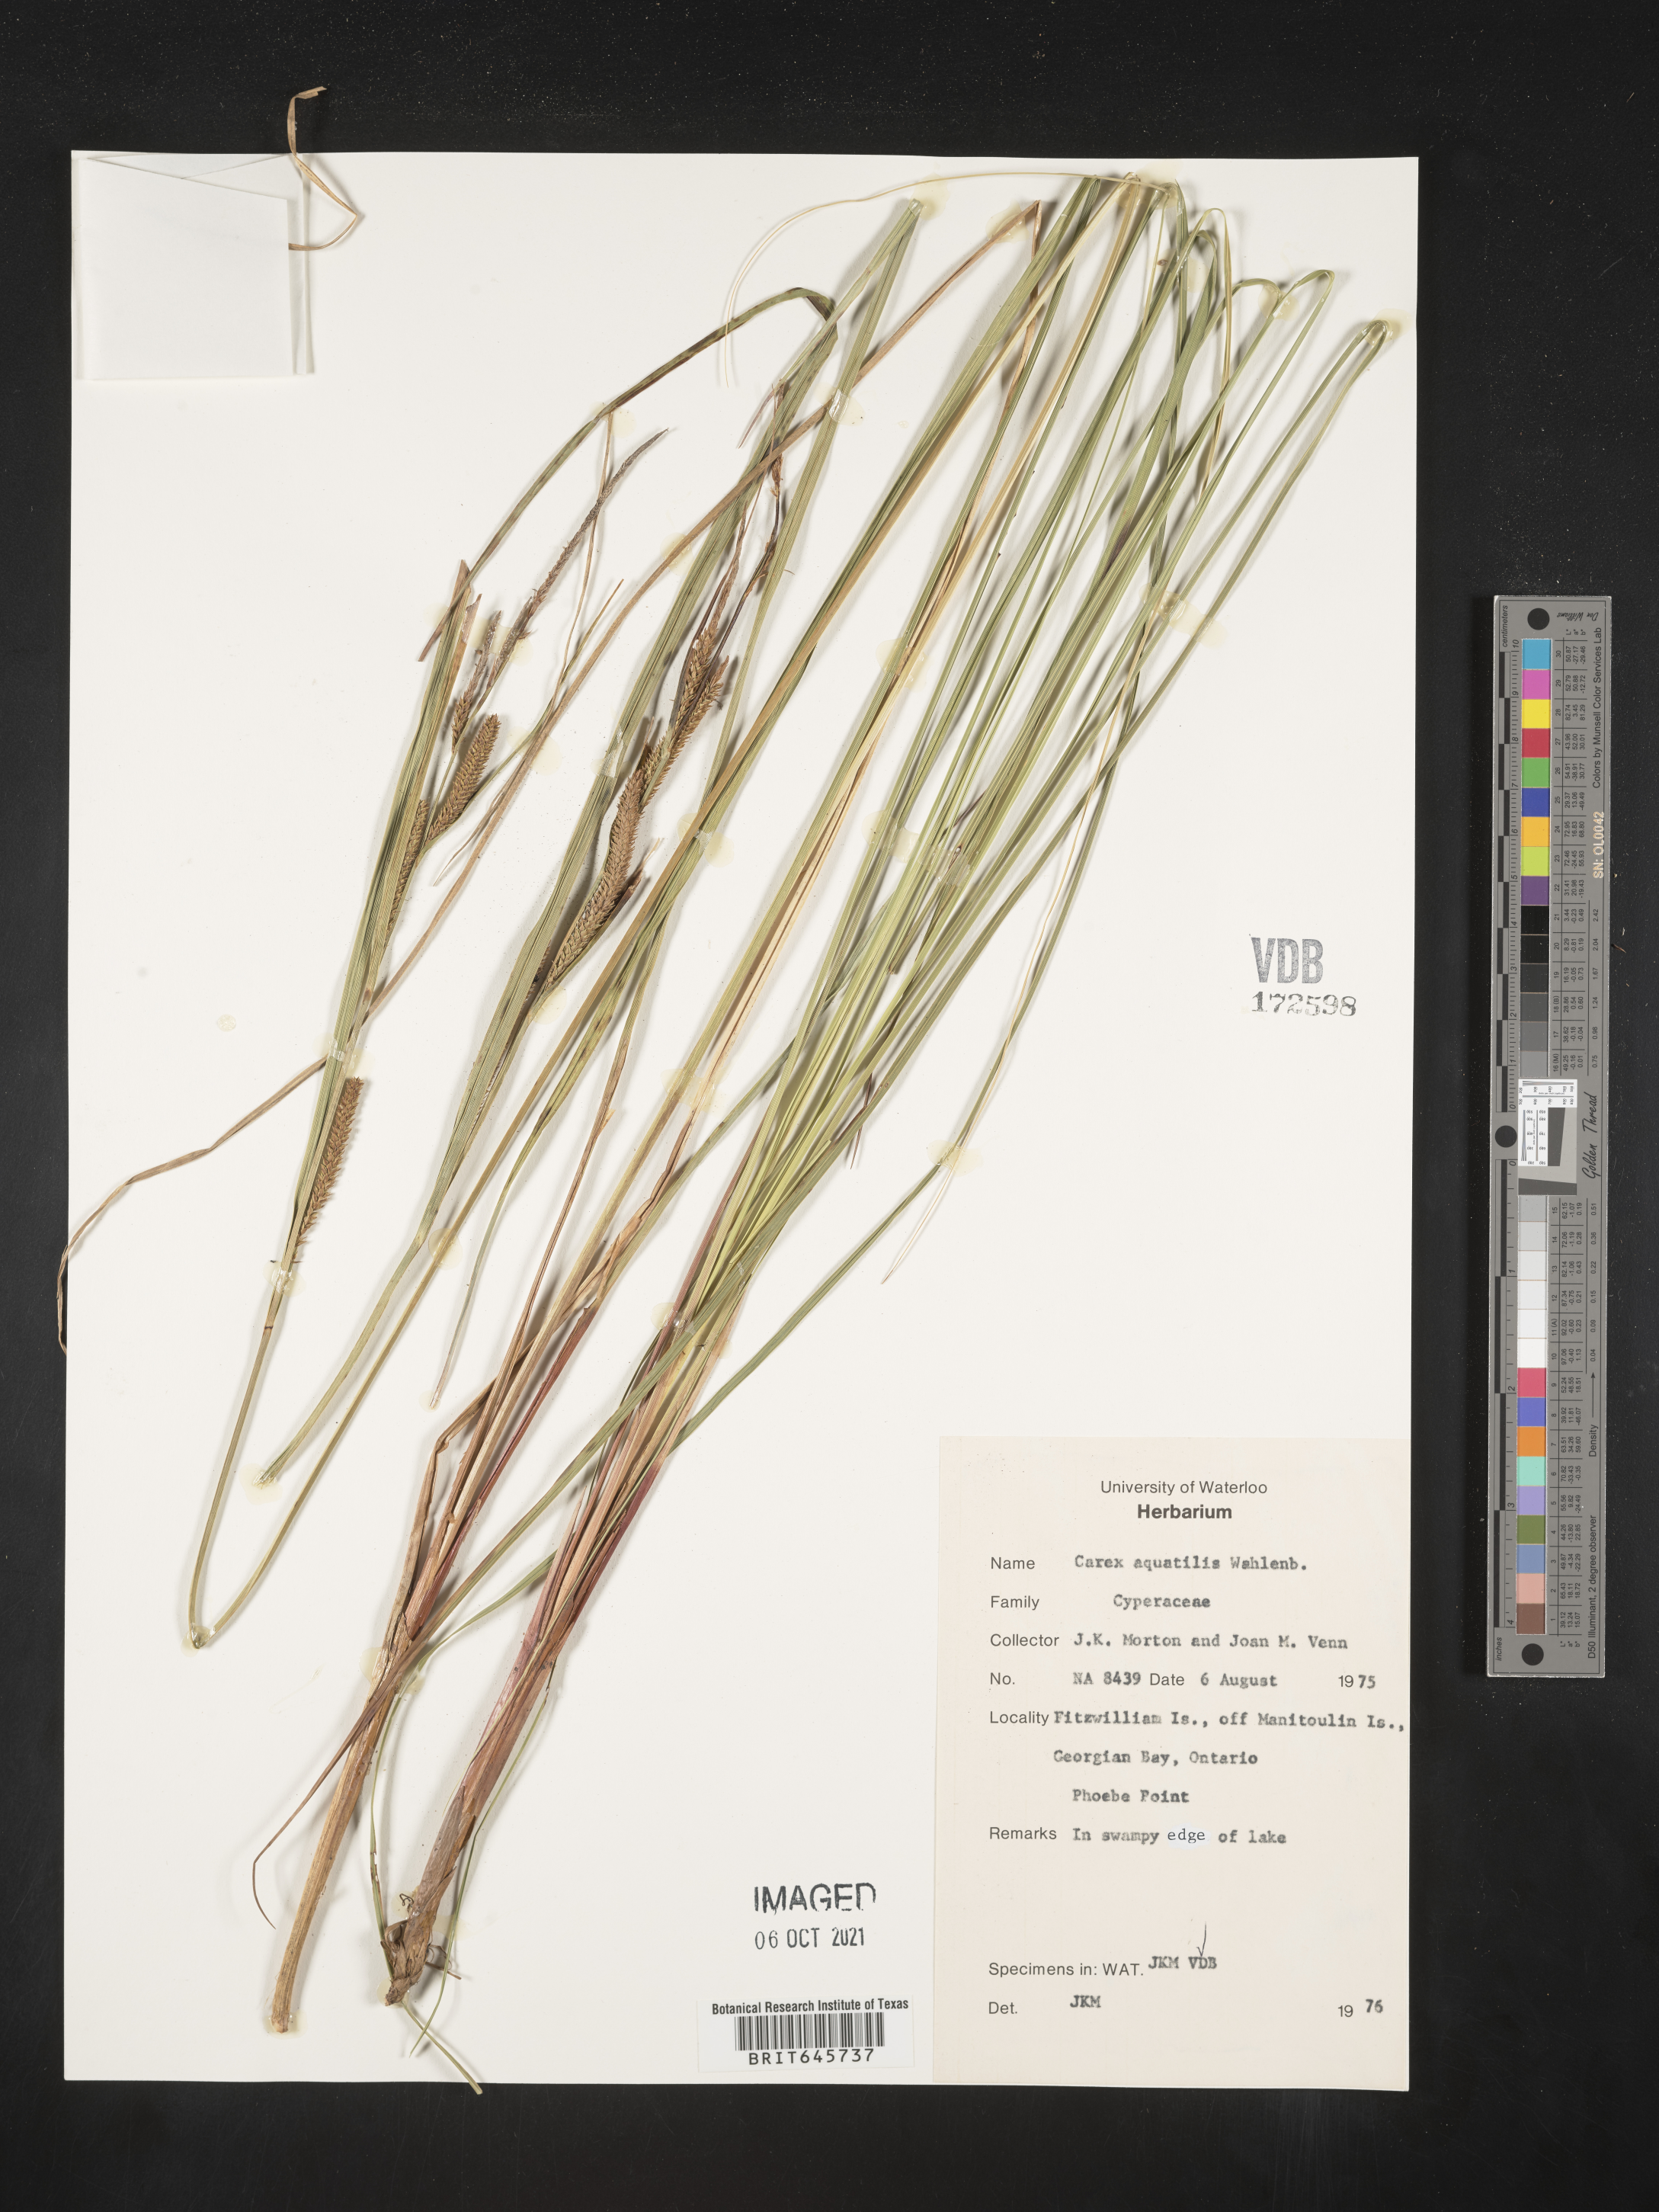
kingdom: Plantae
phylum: Tracheophyta
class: Liliopsida
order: Poales
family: Cyperaceae
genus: Carex
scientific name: Carex aquatilis
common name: Water sedge
